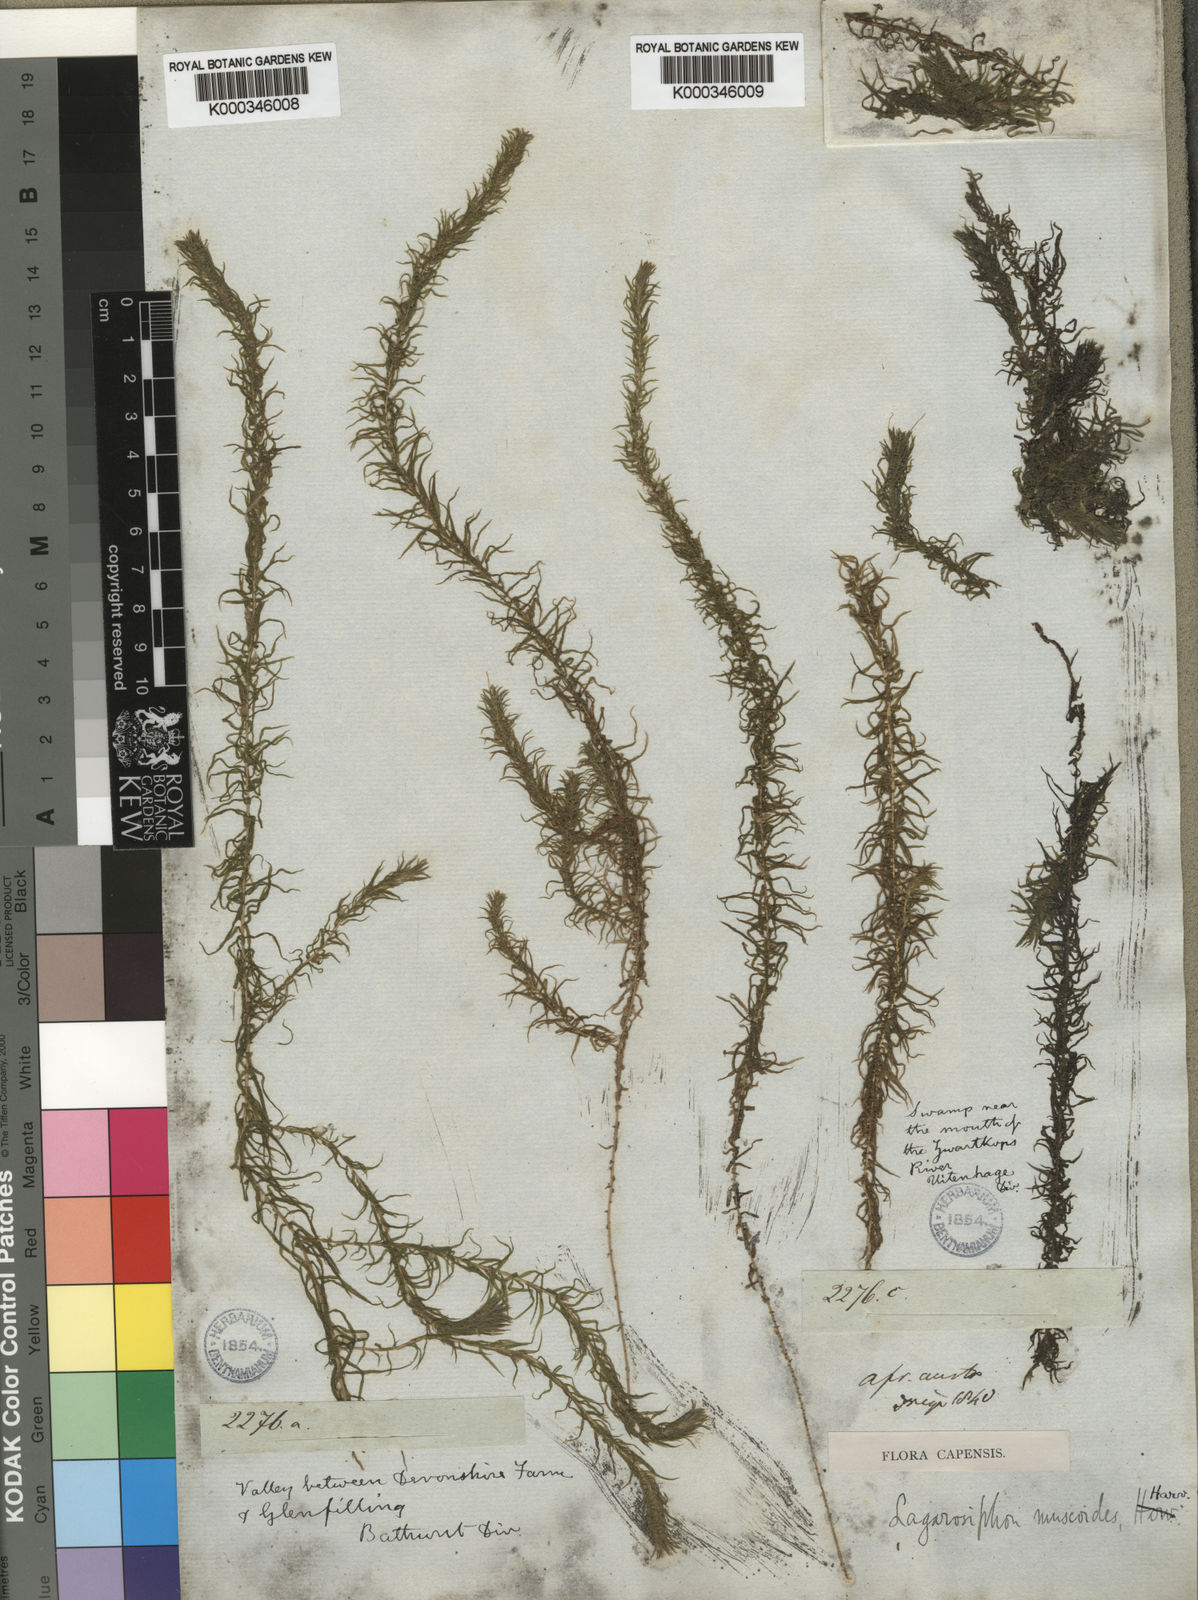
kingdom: Plantae
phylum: Tracheophyta
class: Liliopsida
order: Alismatales
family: Hydrocharitaceae
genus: Lagarosiphon
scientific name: Lagarosiphon muscoides
